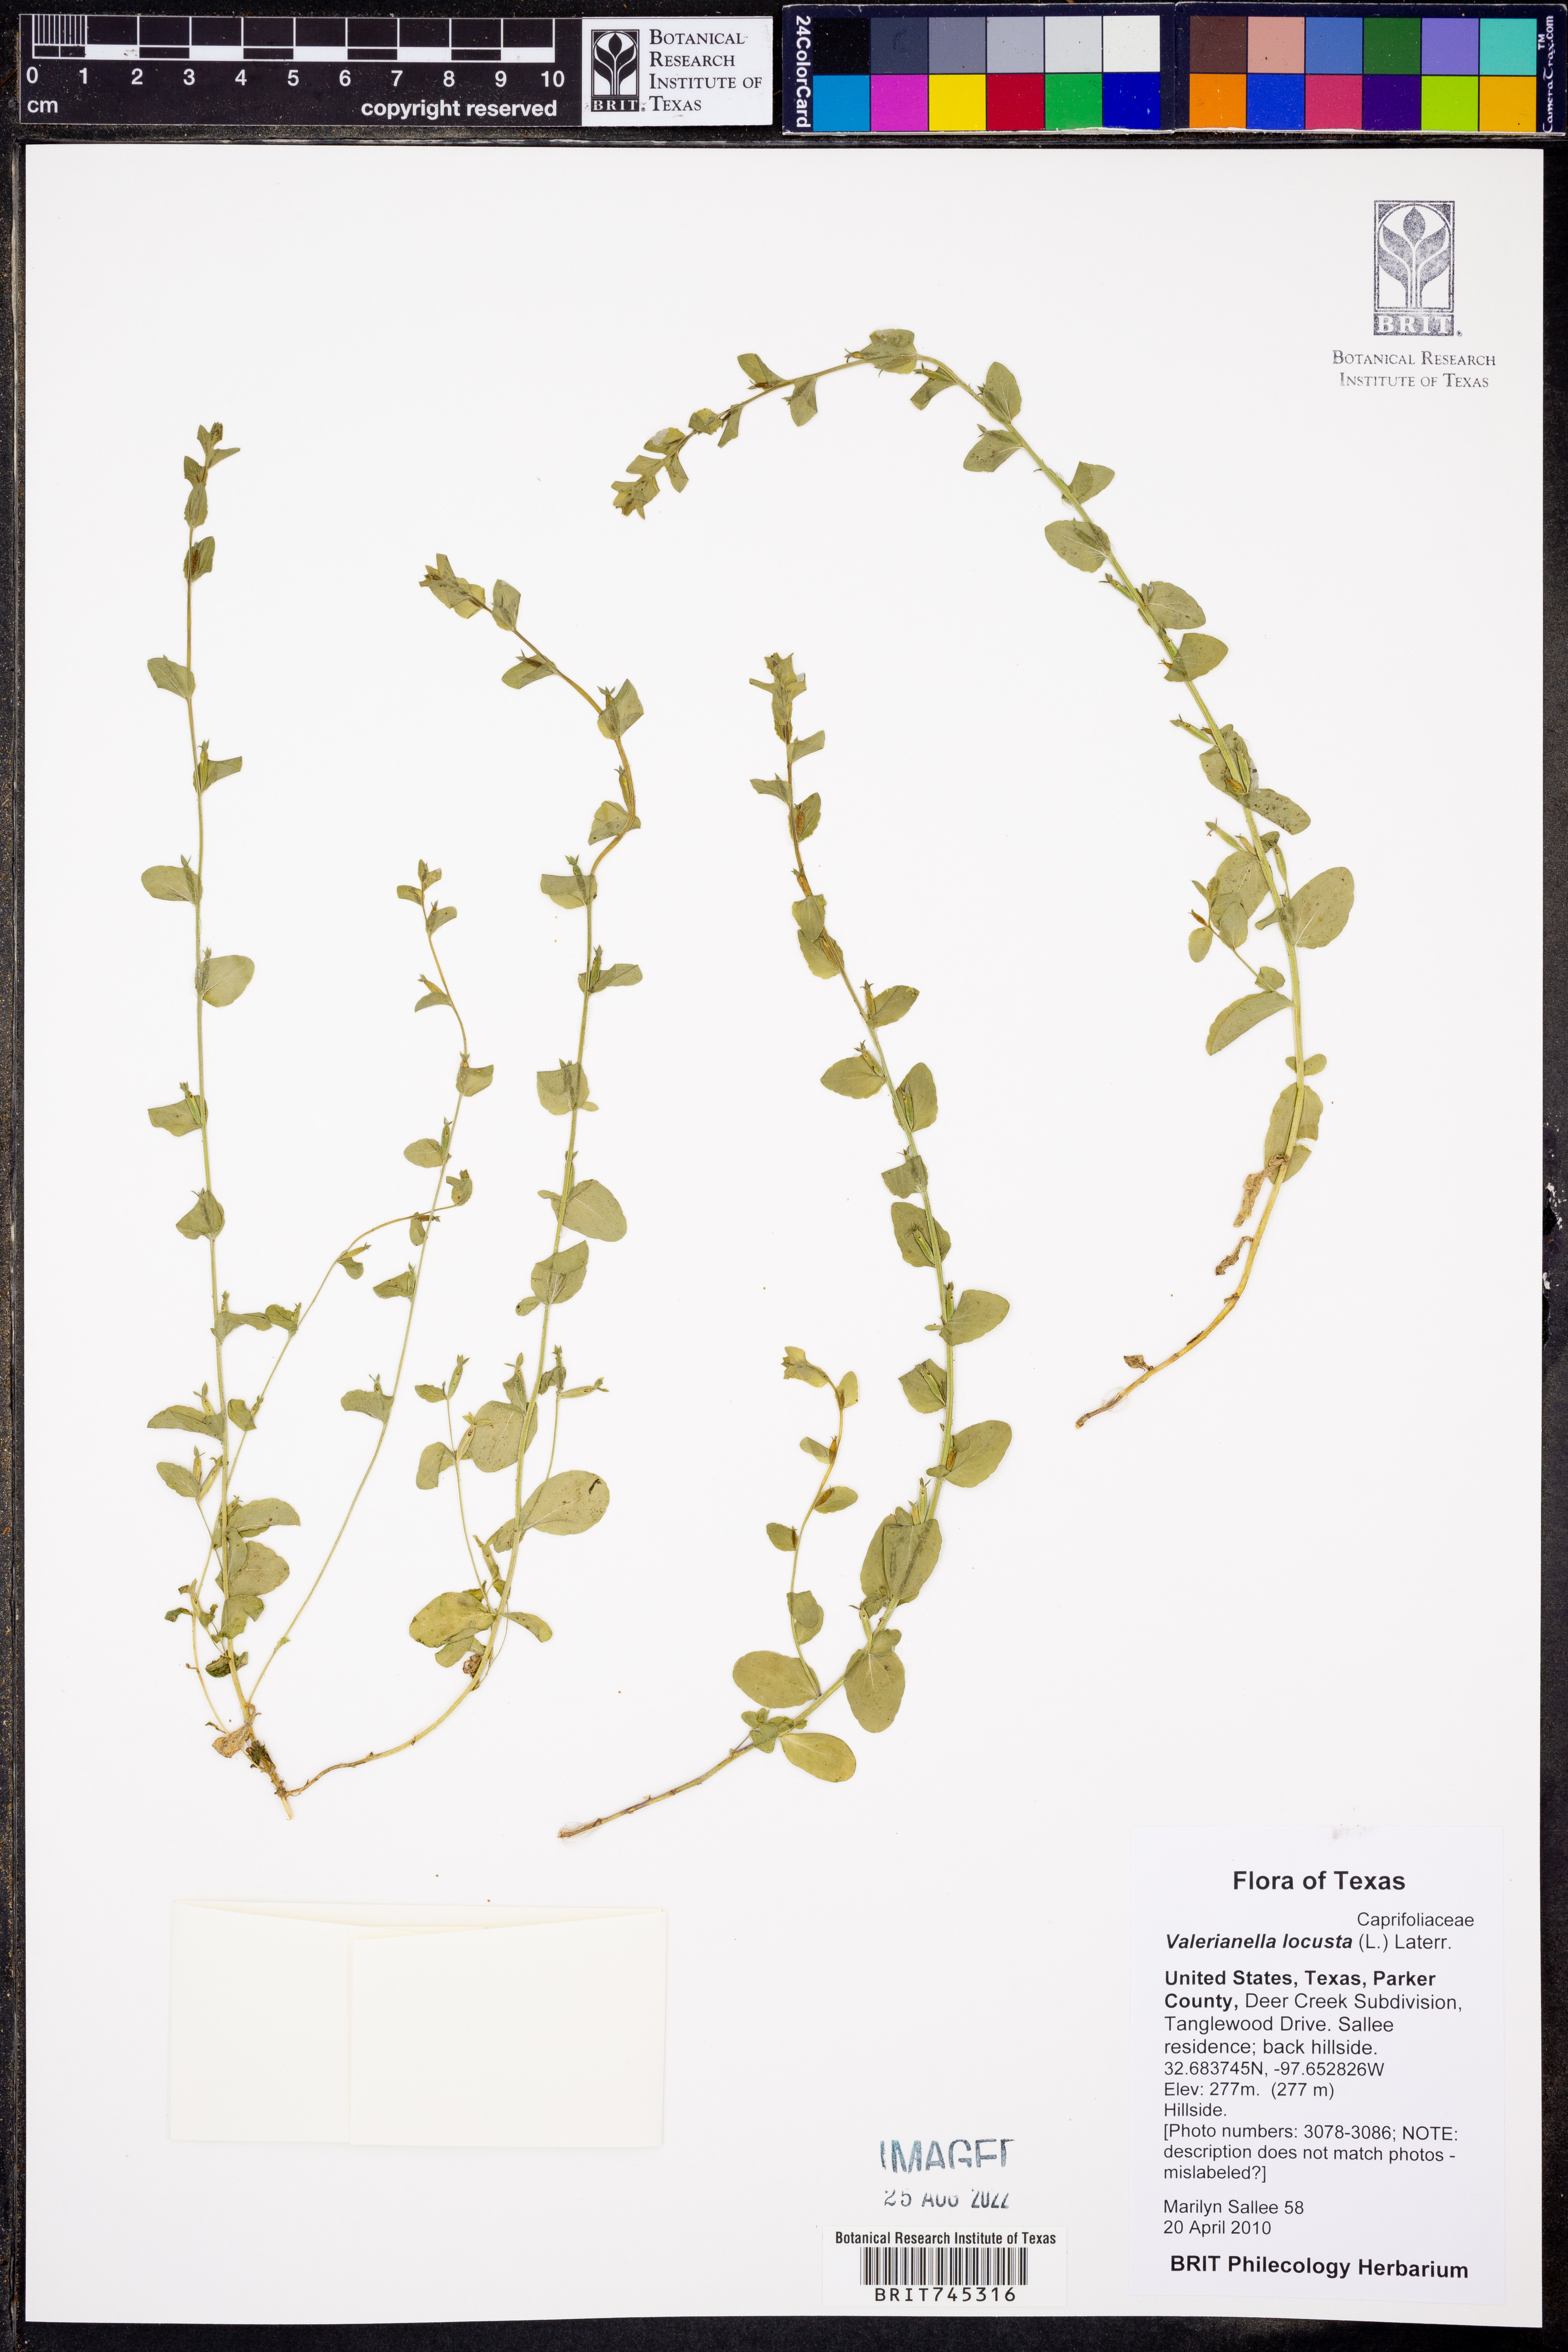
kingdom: Plantae
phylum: Tracheophyta
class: Magnoliopsida
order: Dipsacales
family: Caprifoliaceae
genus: Valerianella
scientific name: Valerianella locusta
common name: Common cornsalad
